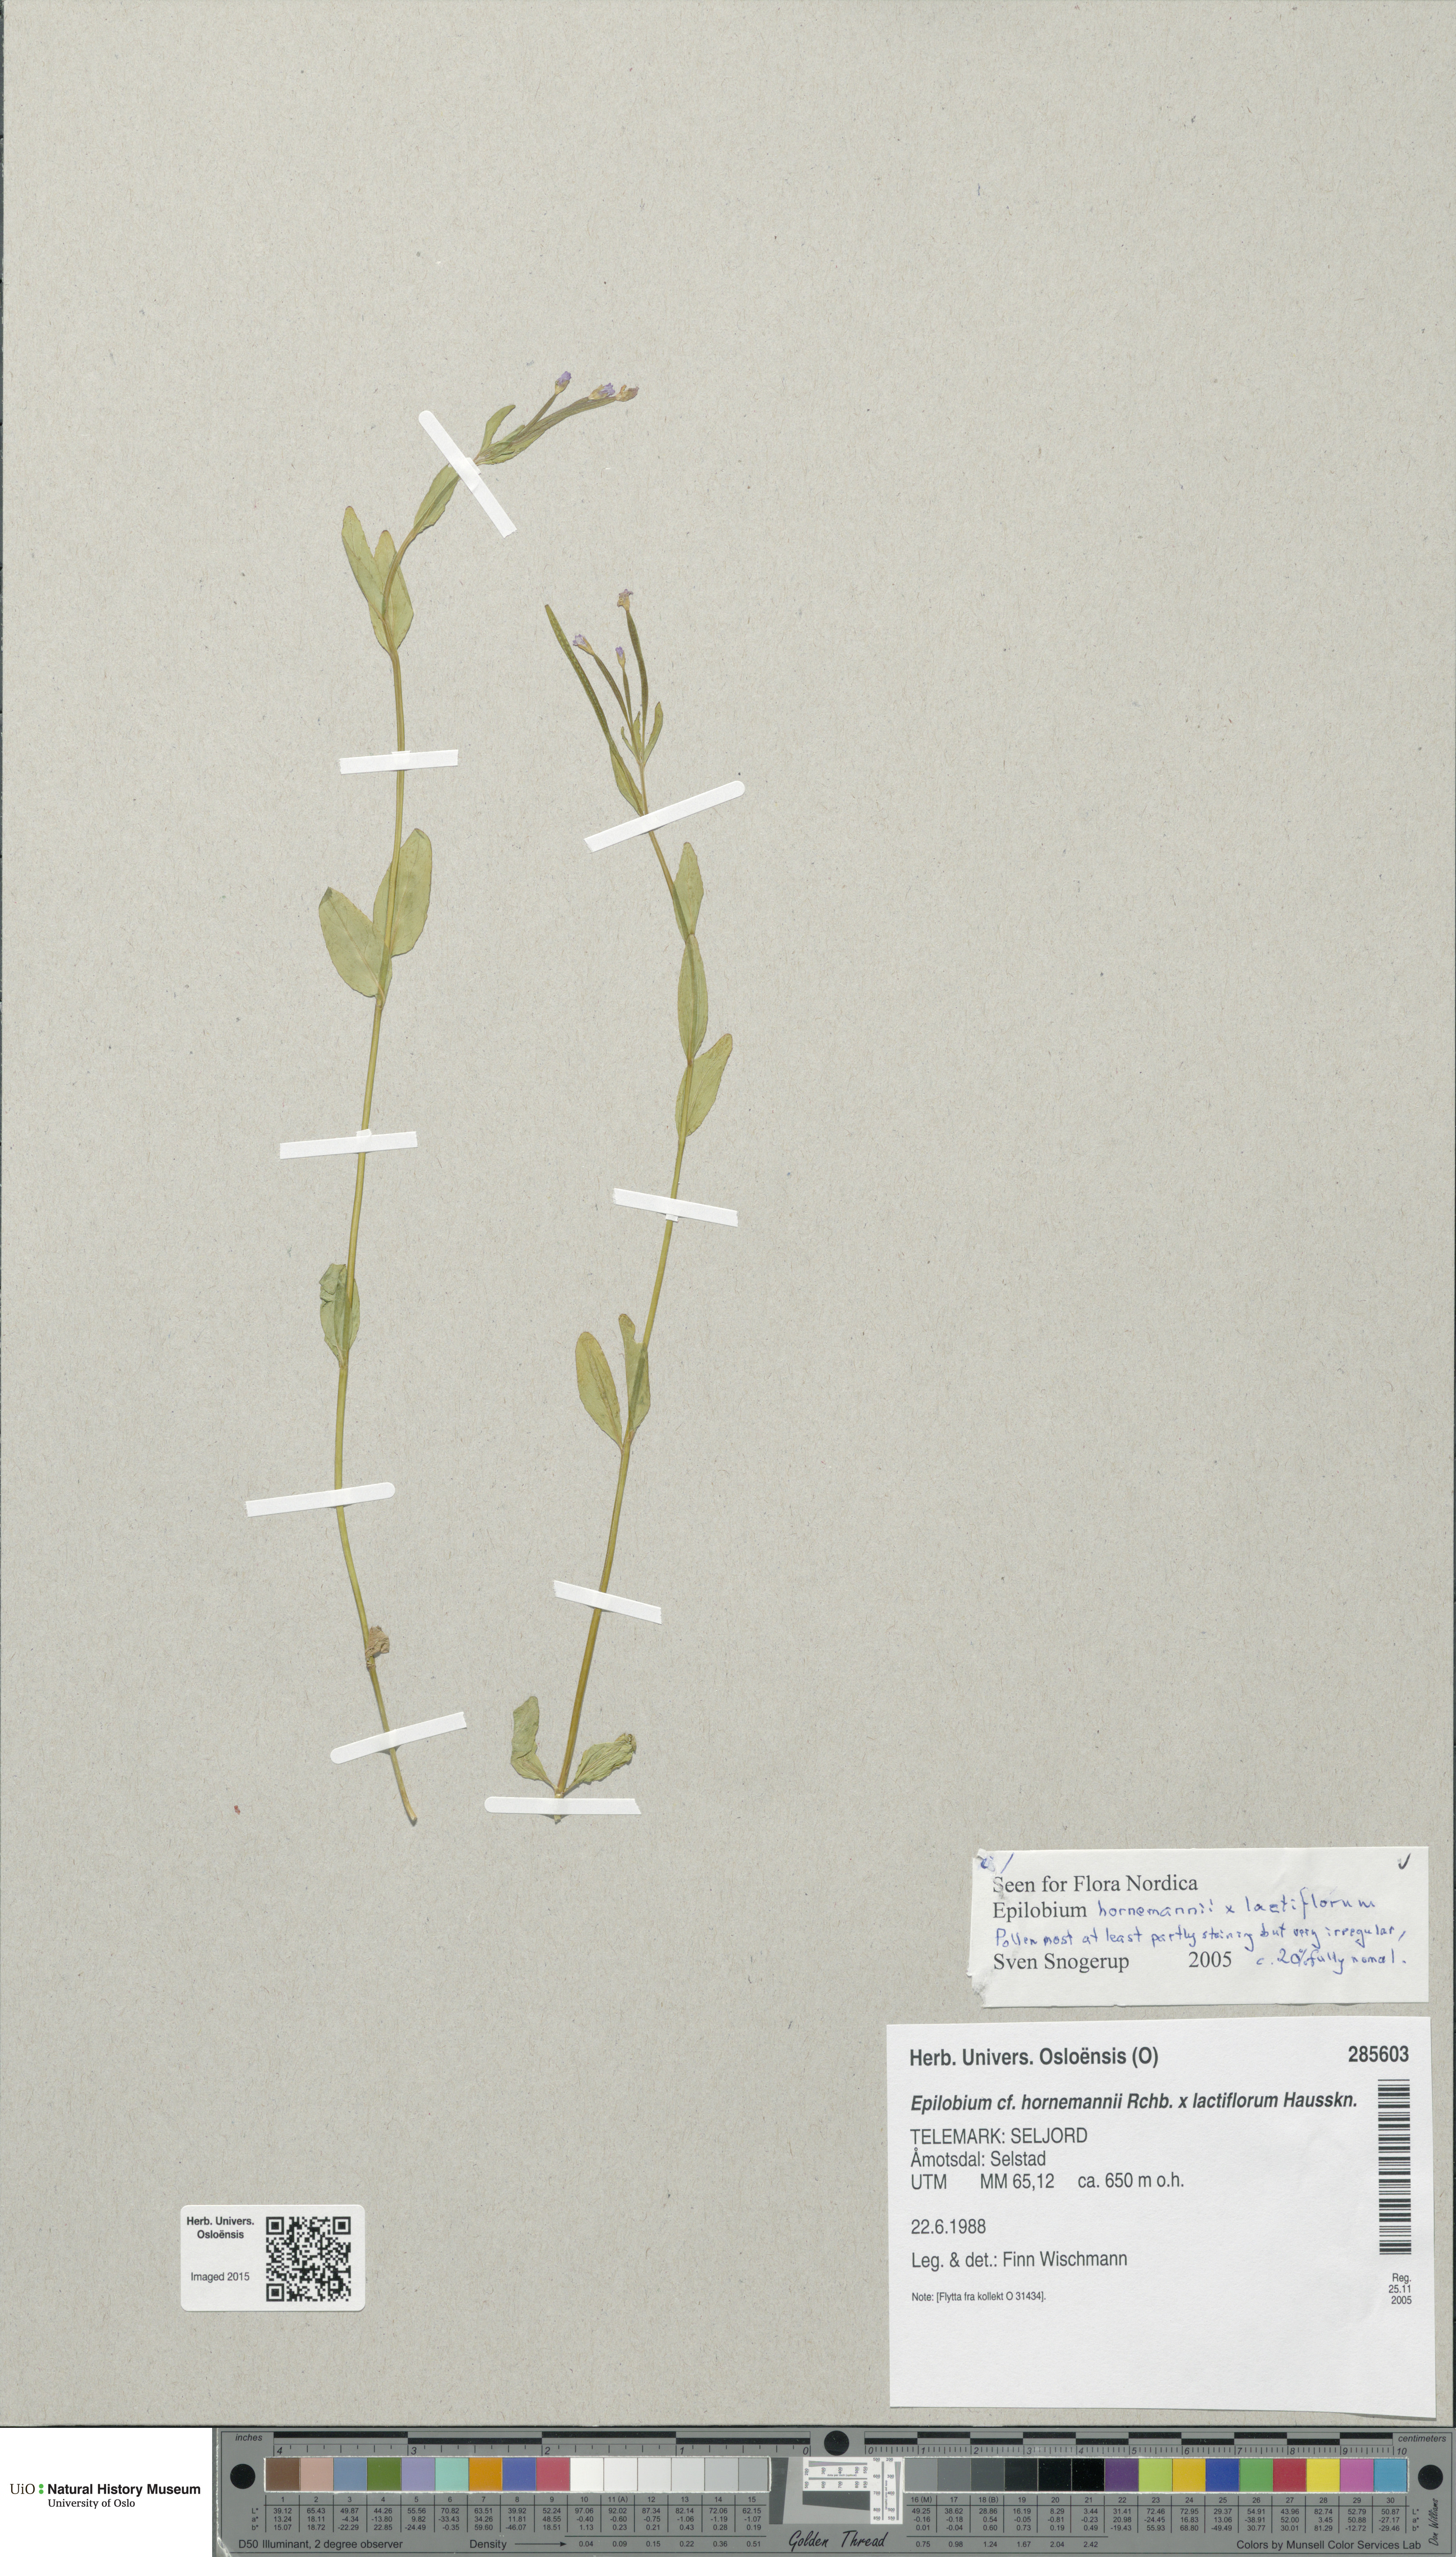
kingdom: Plantae
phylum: Tracheophyta
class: Magnoliopsida
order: Myrtales
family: Onagraceae
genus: Epilobium
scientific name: Epilobium
